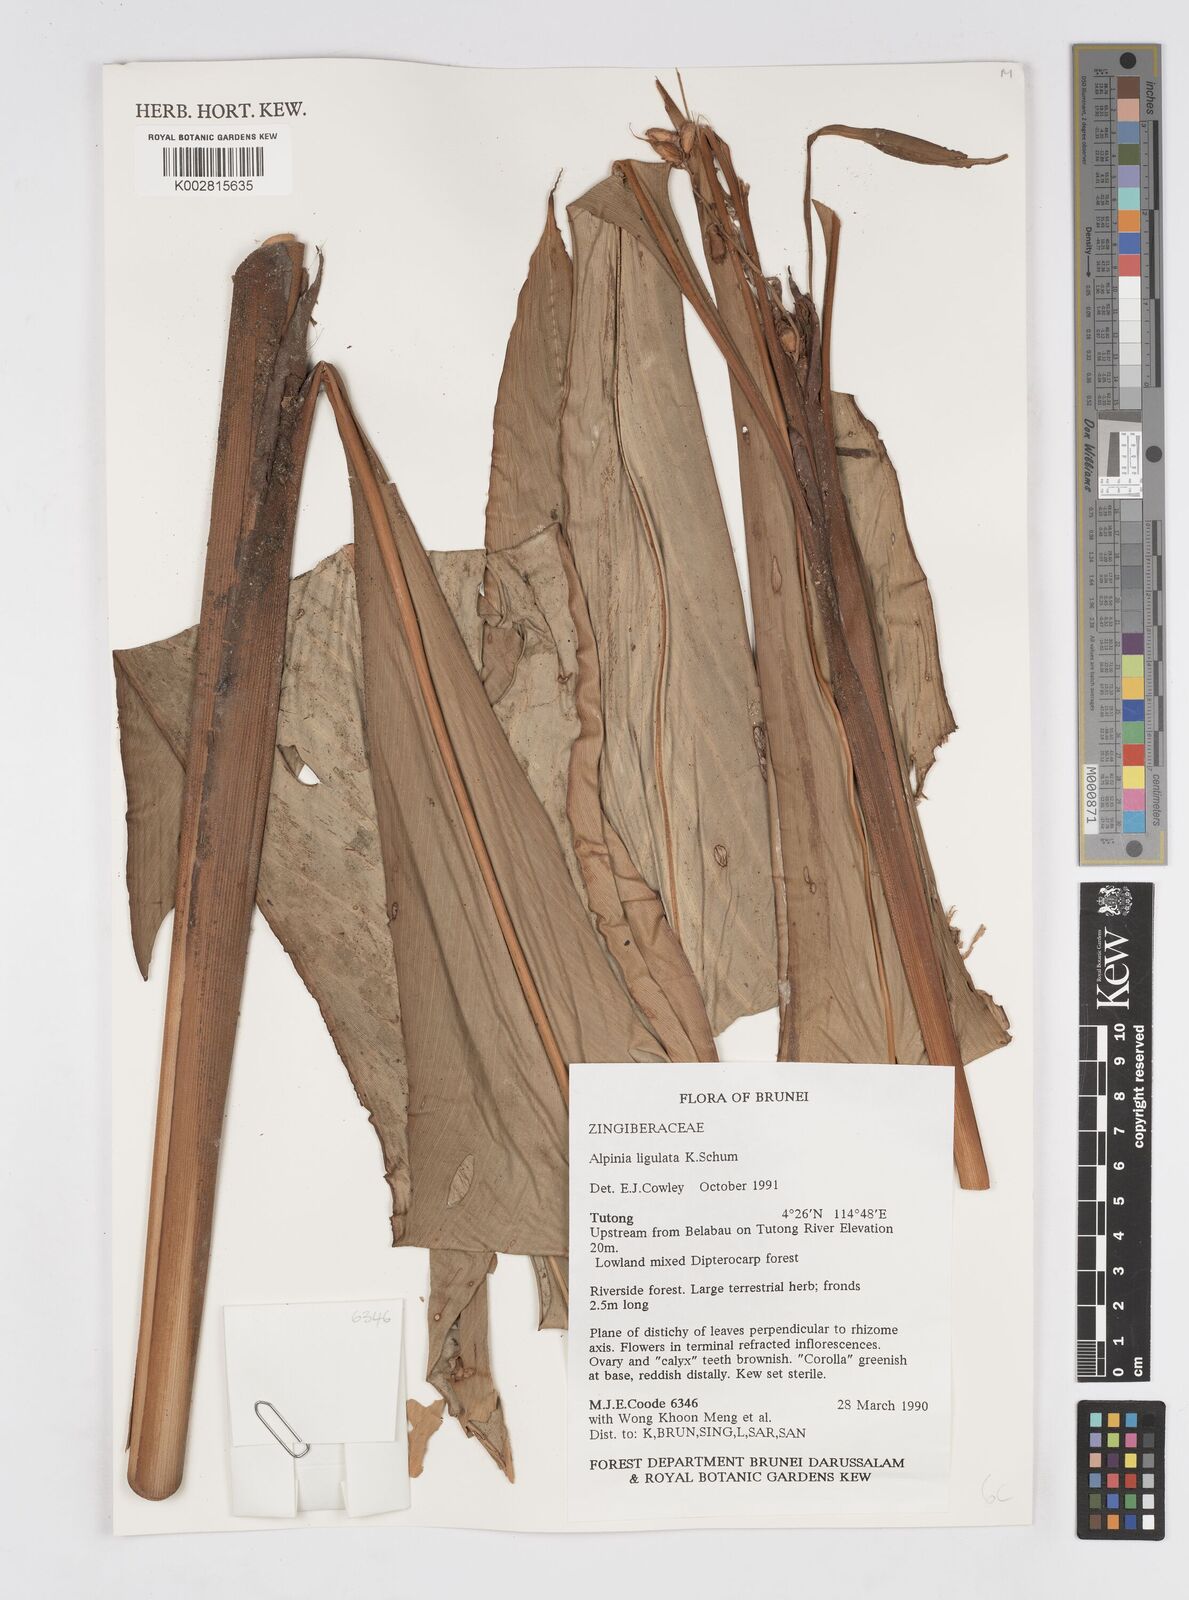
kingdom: Plantae
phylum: Tracheophyta
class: Liliopsida
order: Zingiberales
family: Zingiberaceae
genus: Alpinia
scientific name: Alpinia ligulata
